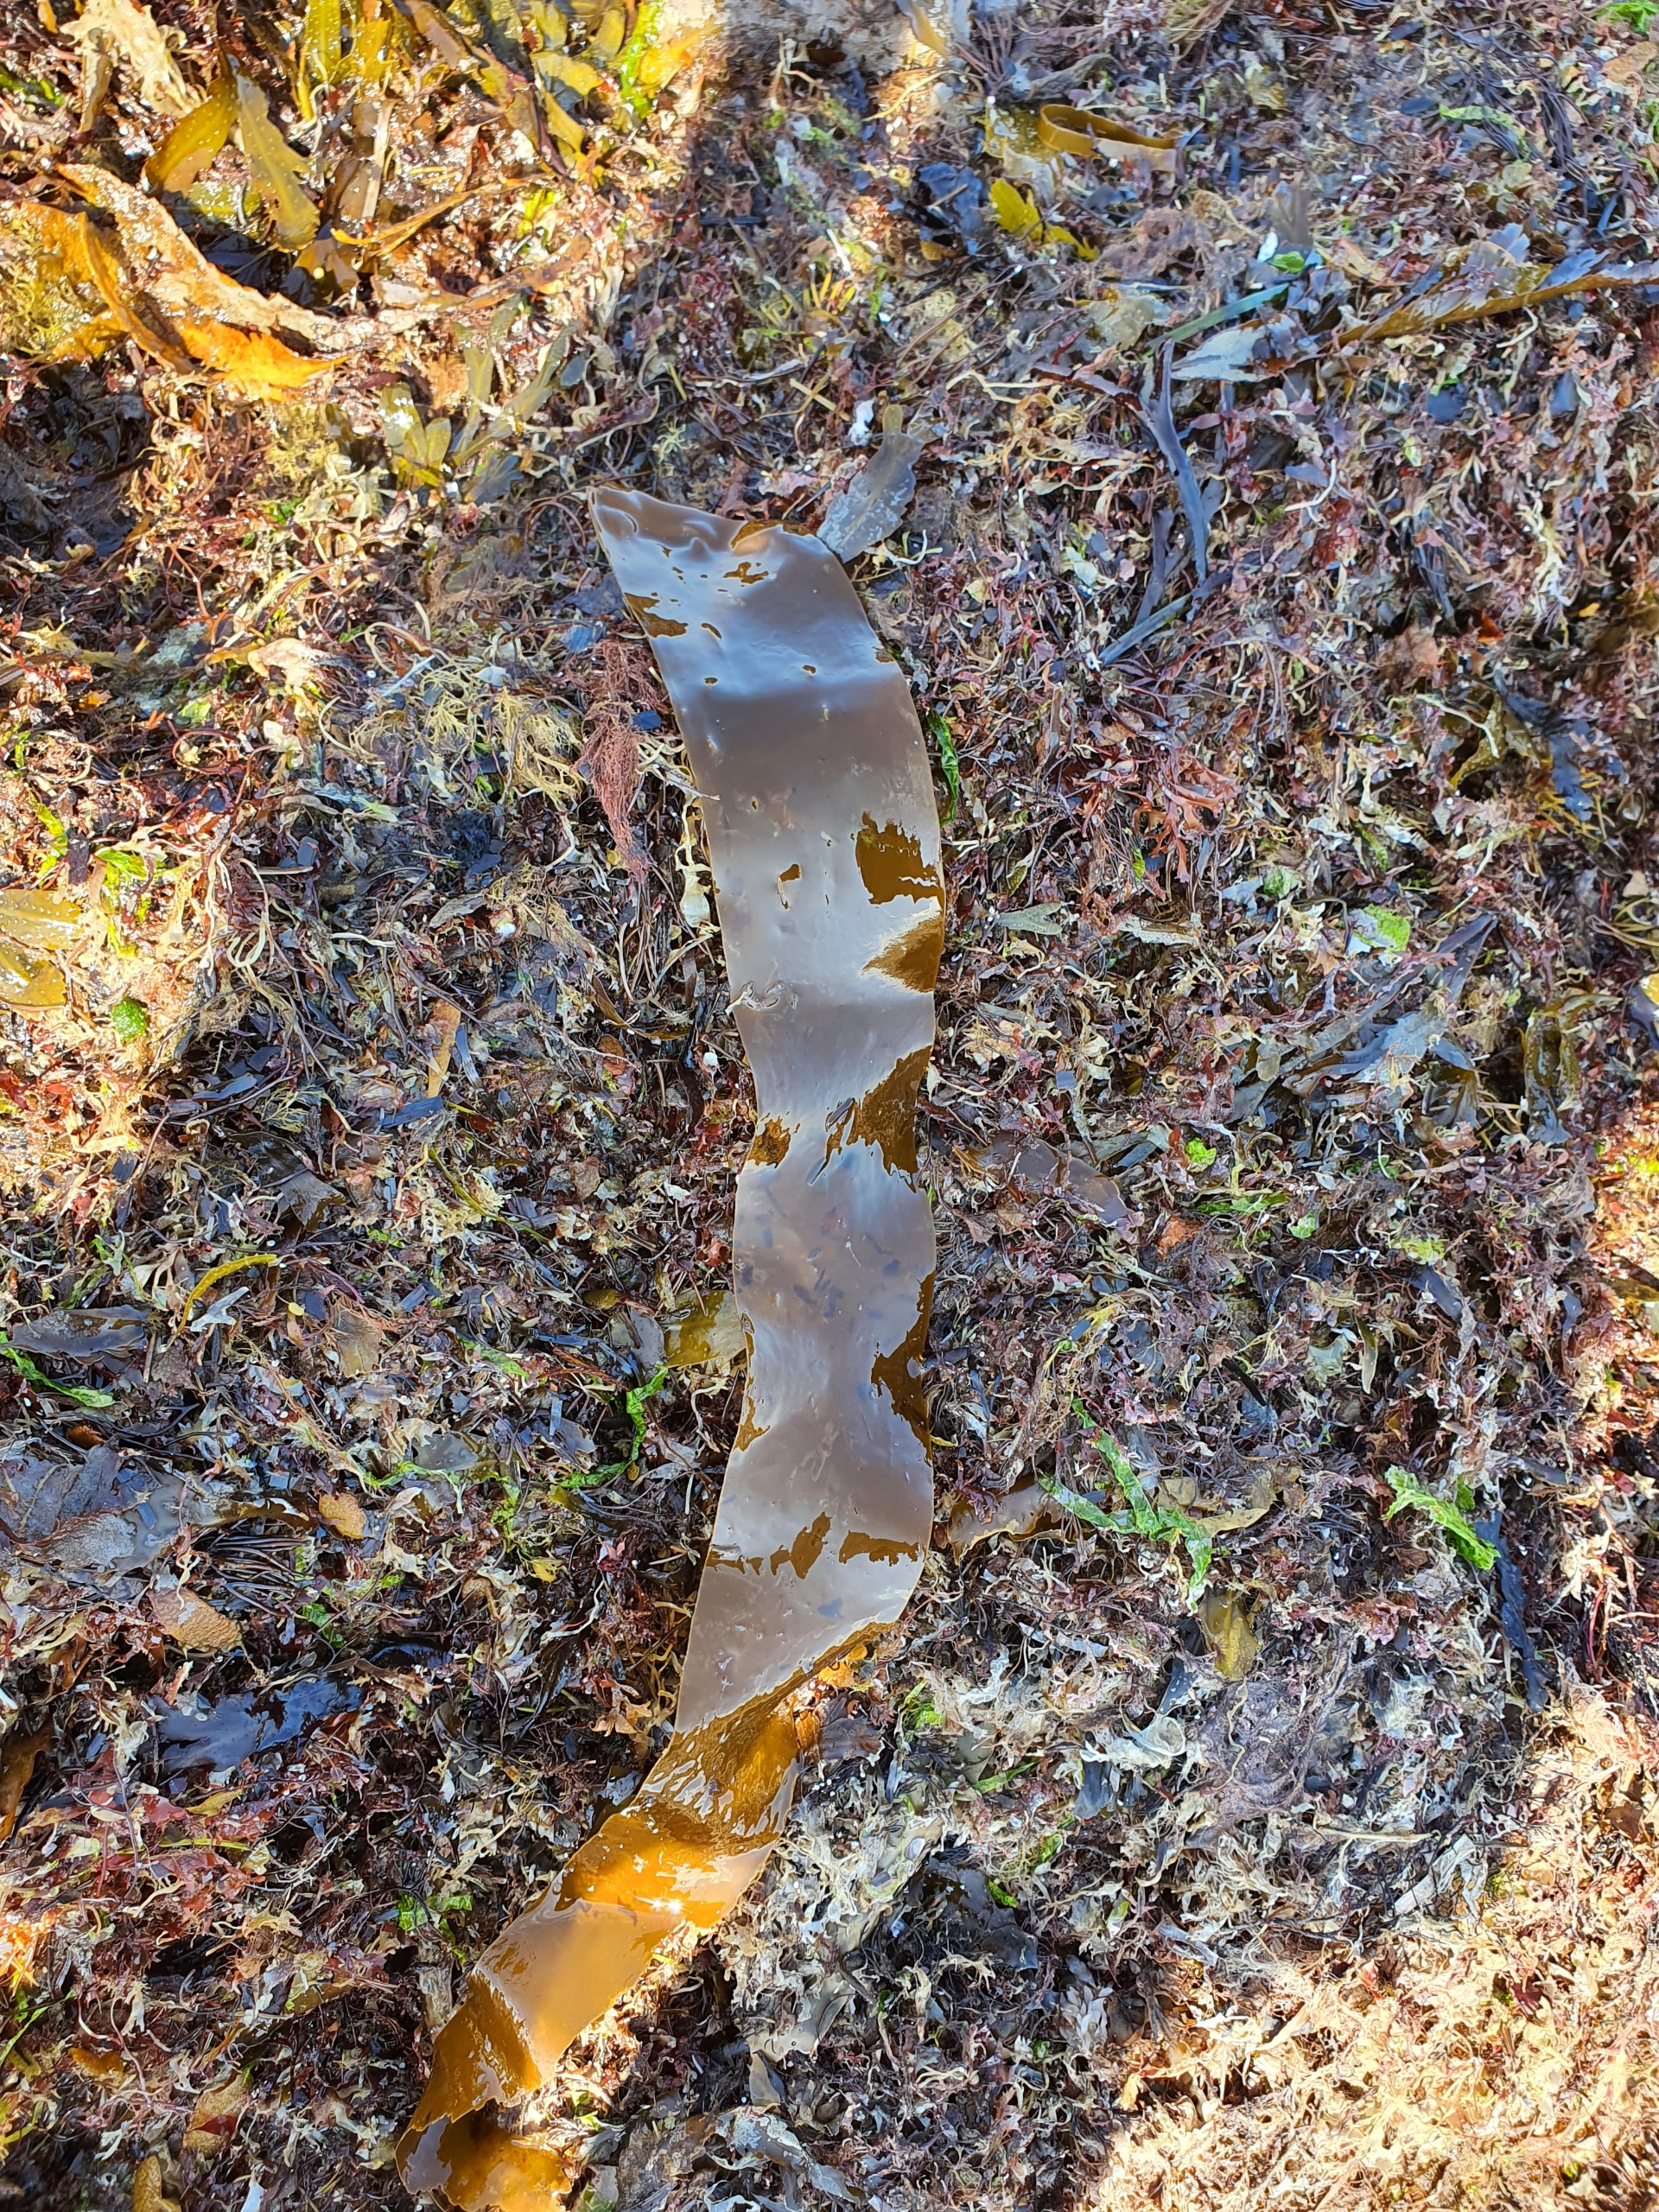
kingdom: Chromista
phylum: Ochrophyta
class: Phaeophyceae
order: Laminariales
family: Laminariaceae
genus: Laminaria
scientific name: Laminaria digitata
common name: Fingertang
